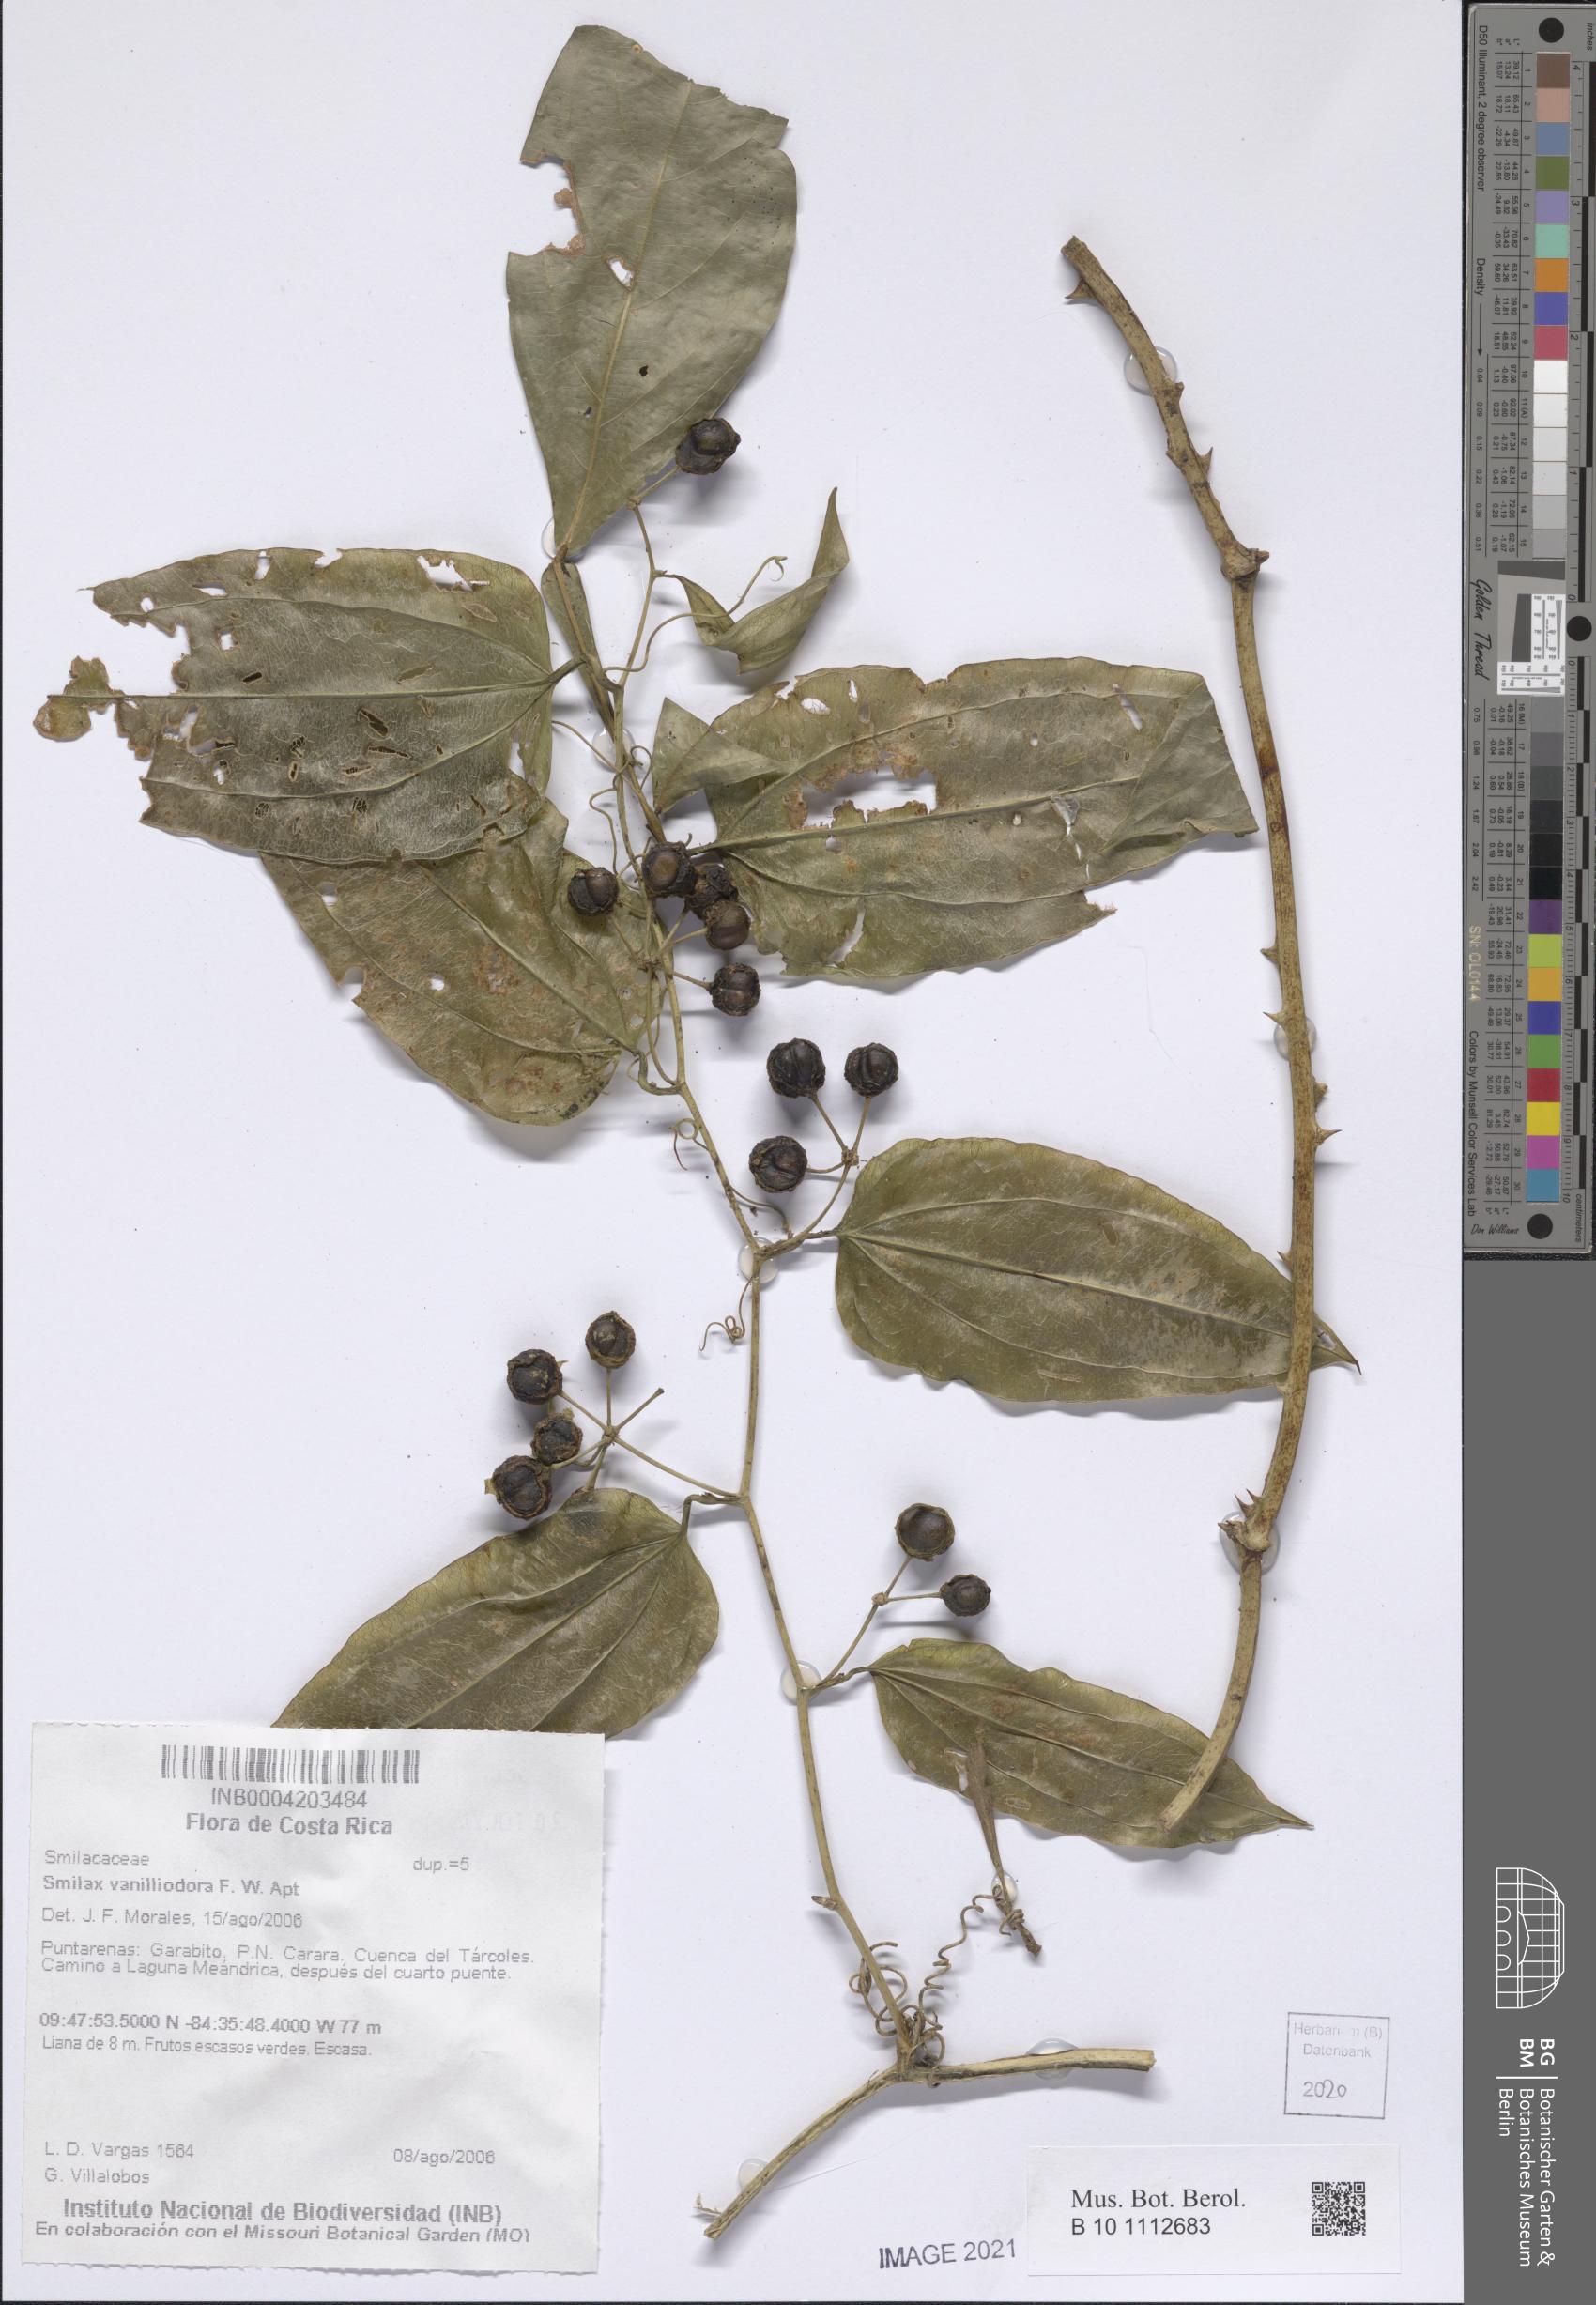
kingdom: Plantae
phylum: Tracheophyta
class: Liliopsida
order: Liliales
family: Smilacaceae
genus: Smilax
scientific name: Smilax officinalis
